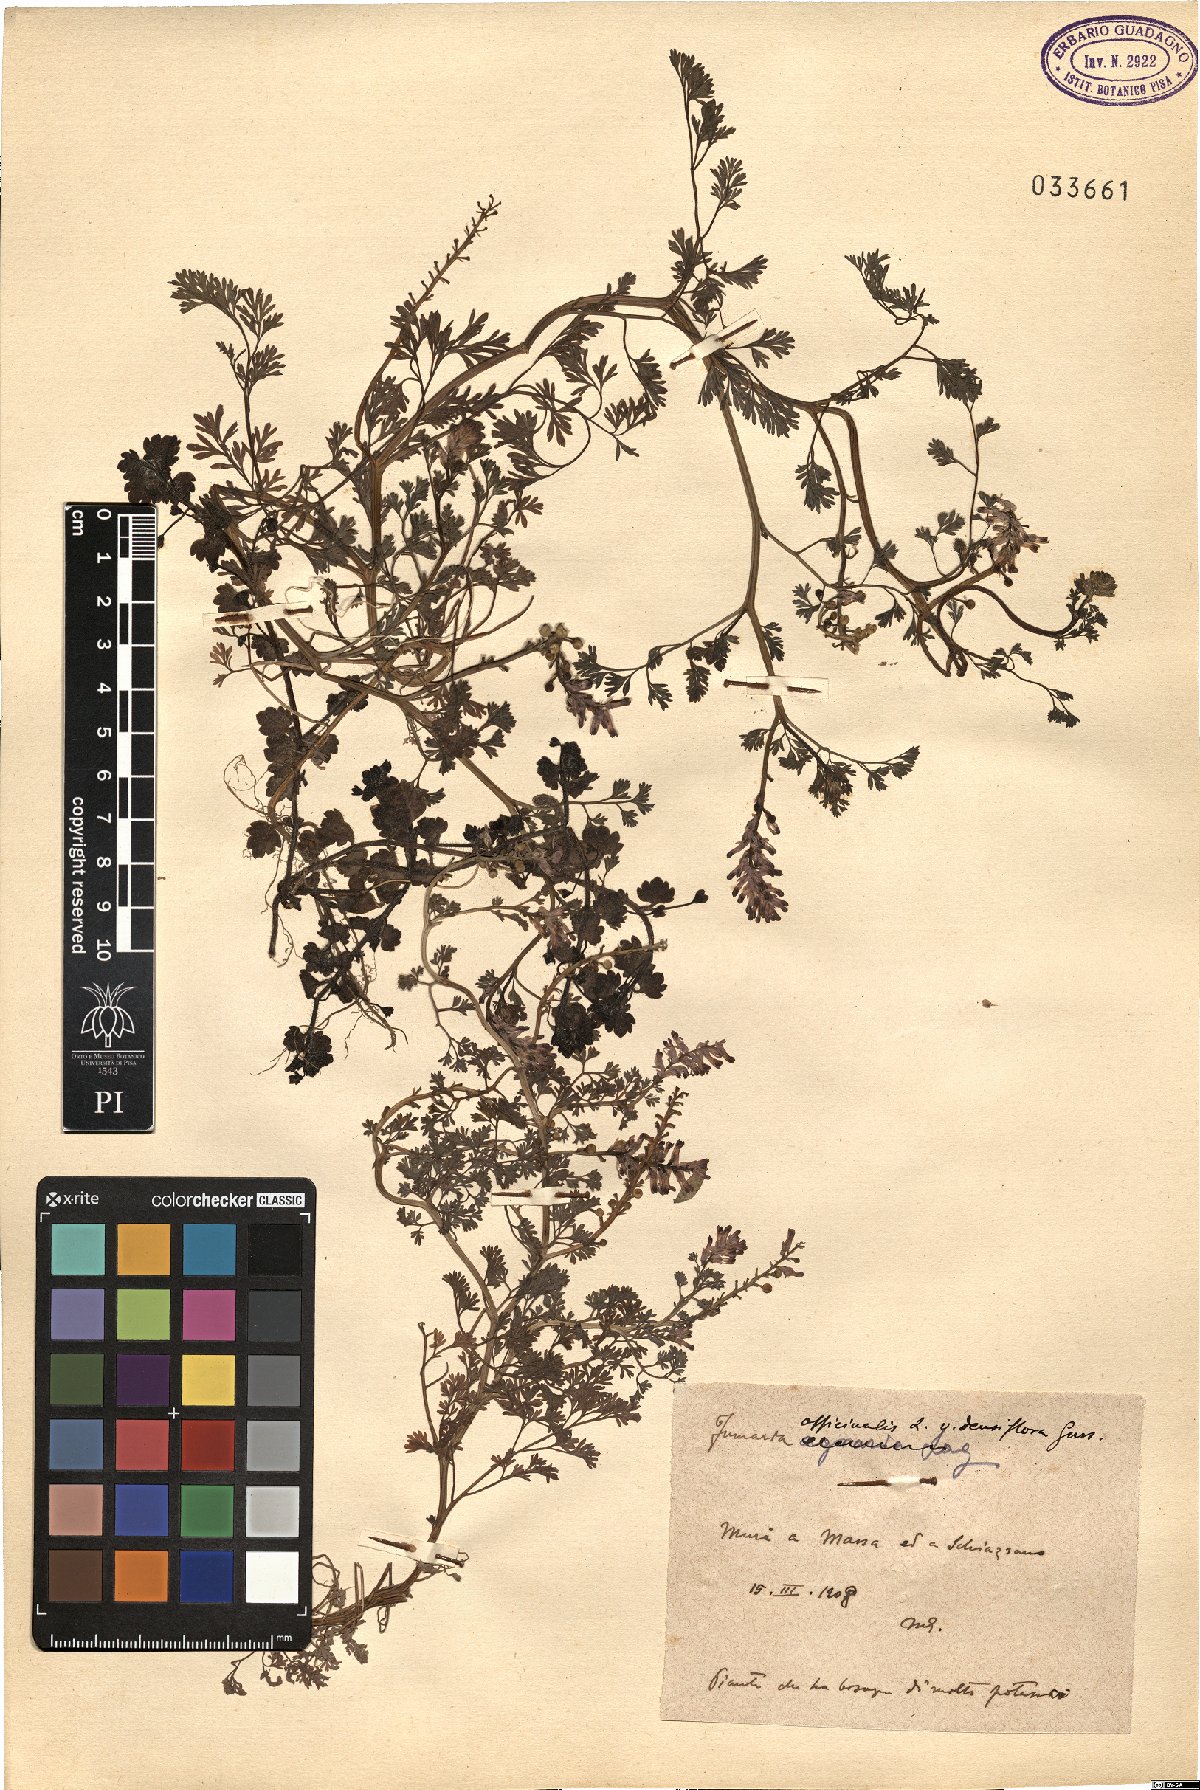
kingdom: Plantae
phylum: Tracheophyta
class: Magnoliopsida
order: Ranunculales
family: Papaveraceae
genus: Fumaria
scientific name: Fumaria densiflora
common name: Dense-flowered fumitory
